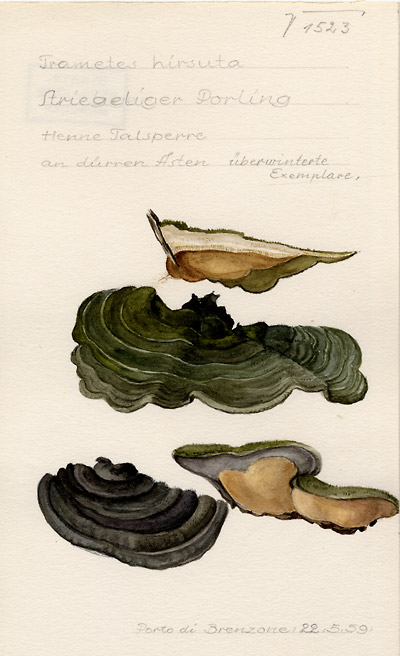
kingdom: Fungi
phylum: Basidiomycota
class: Agaricomycetes
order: Polyporales
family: Polyporaceae
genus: Trametes
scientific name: Trametes hirsuta
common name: Hairy bracket
